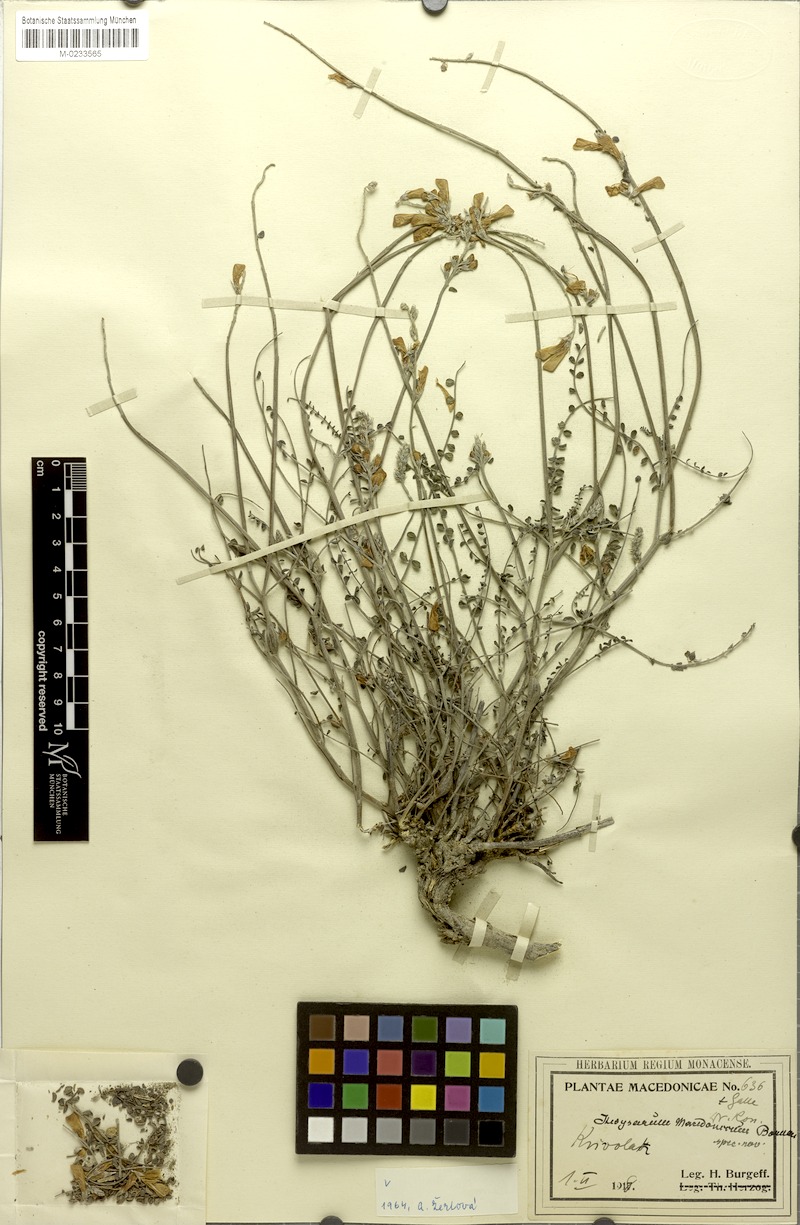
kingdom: Plantae
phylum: Tracheophyta
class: Magnoliopsida
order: Fabales
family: Fabaceae
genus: Hedysarum
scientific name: Hedysarum macedonicum
